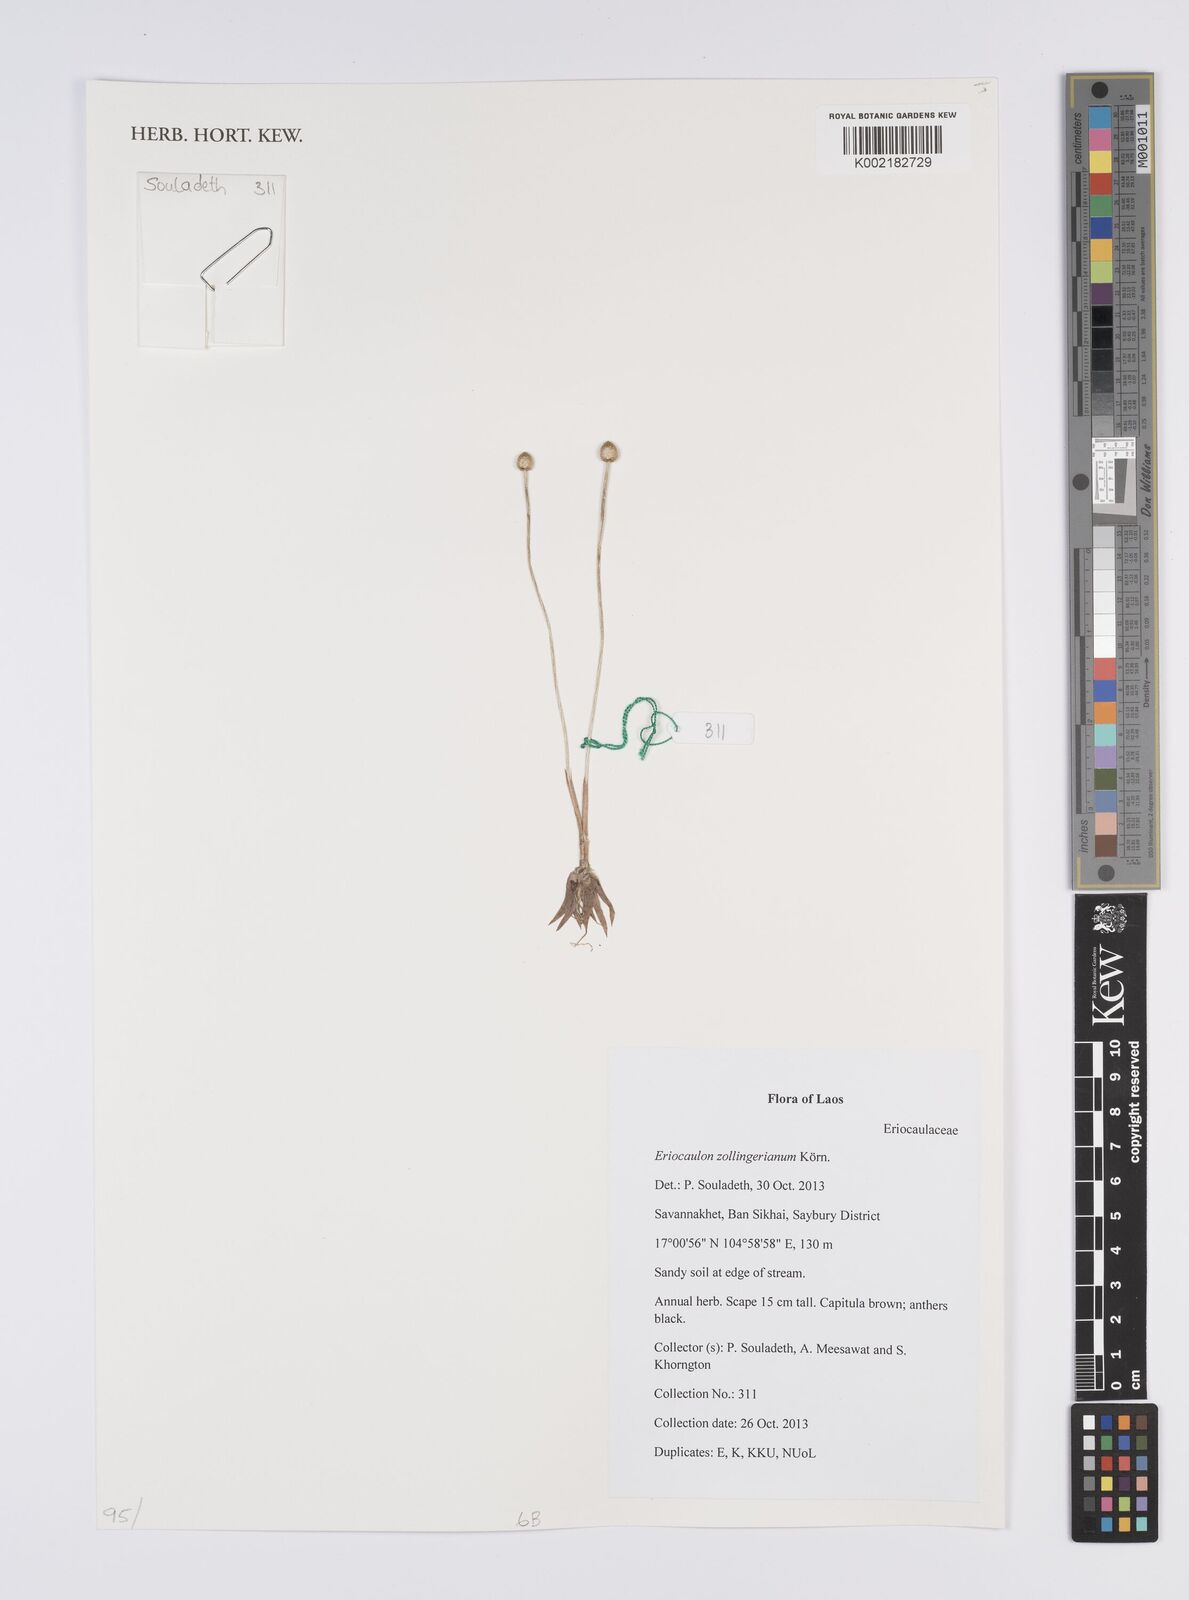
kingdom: Plantae
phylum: Tracheophyta
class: Liliopsida
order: Poales
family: Eriocaulaceae
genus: Eriocaulon
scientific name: Eriocaulon zollingerianum
